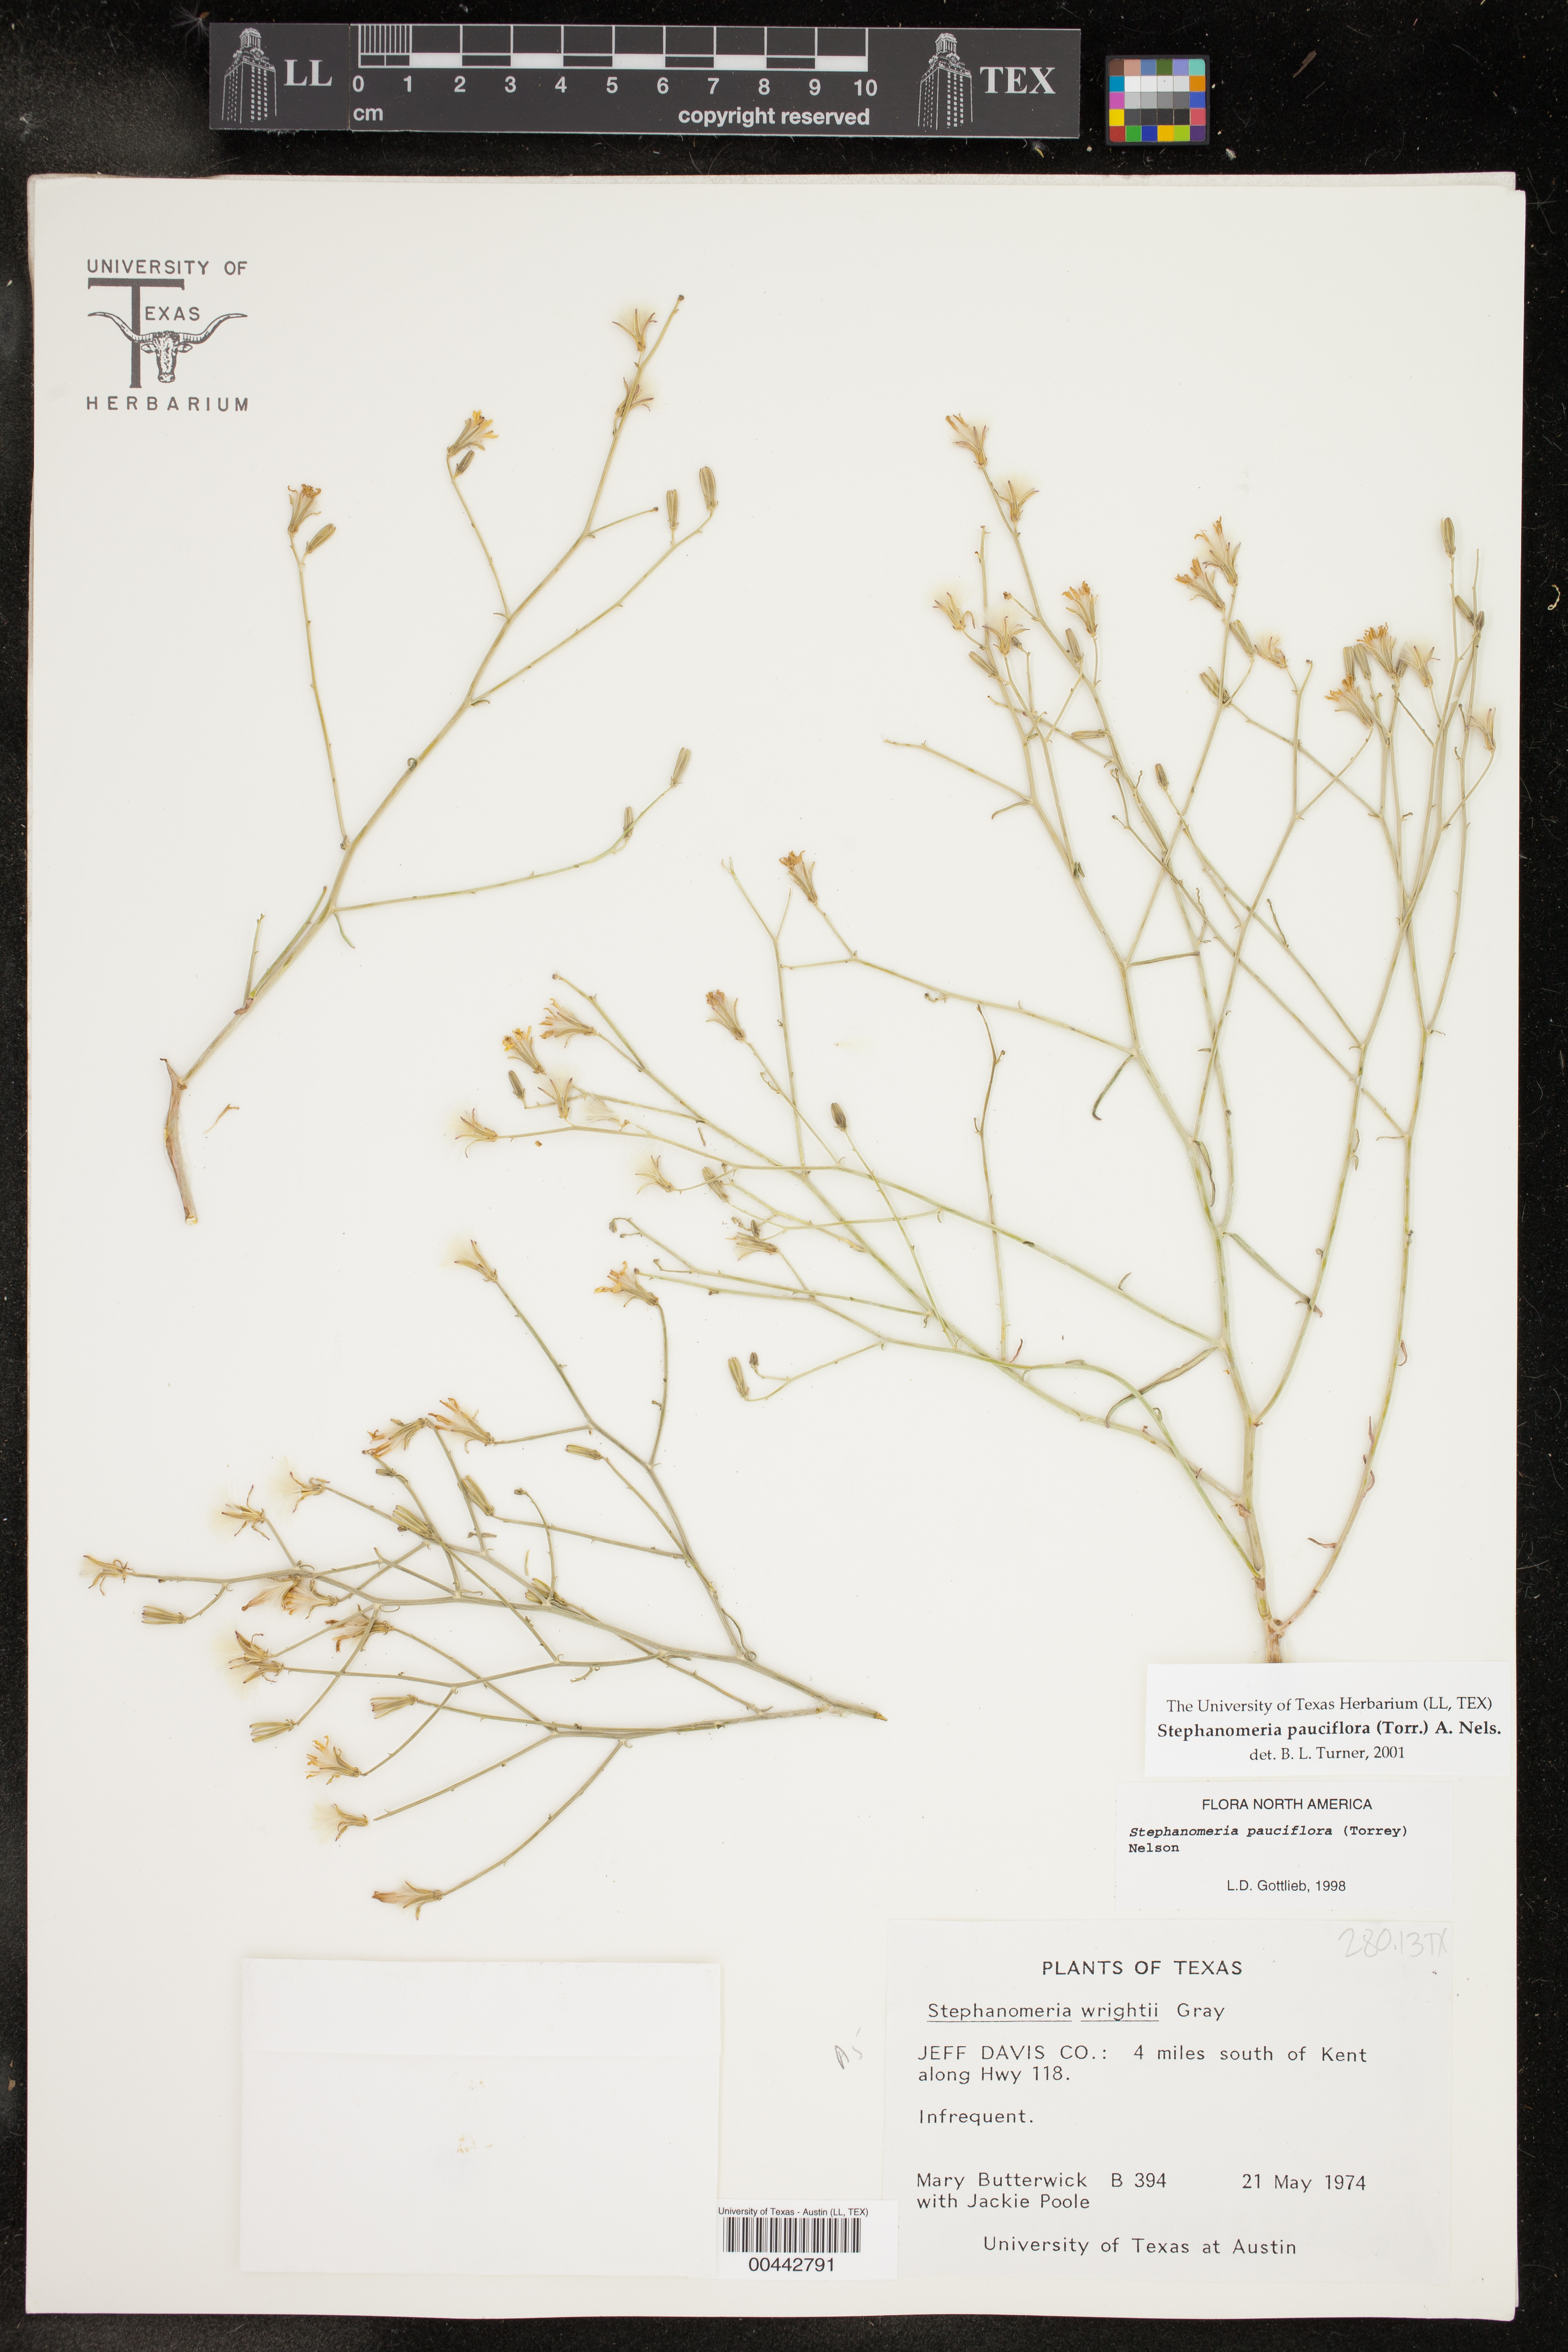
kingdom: Plantae
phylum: Tracheophyta
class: Magnoliopsida
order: Asterales
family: Asteraceae
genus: Stephanomeria
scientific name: Stephanomeria pauciflora
